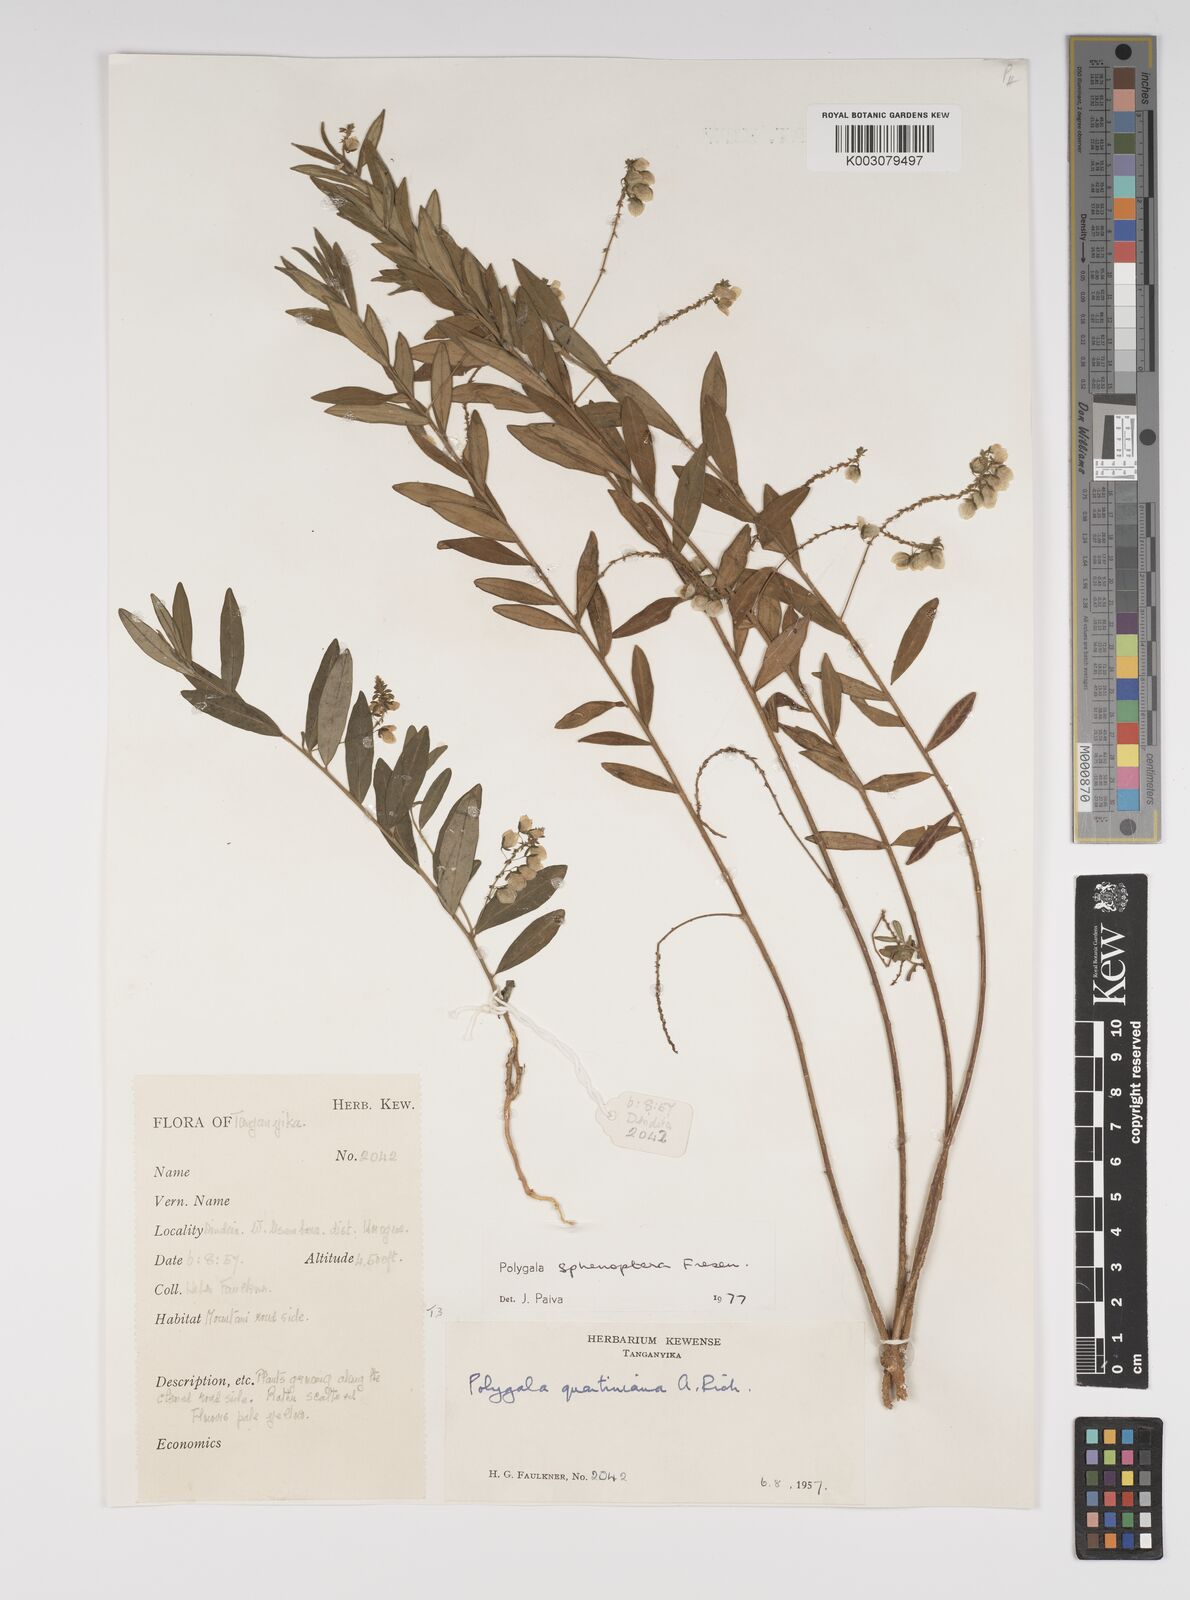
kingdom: Plantae
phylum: Tracheophyta
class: Magnoliopsida
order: Fabales
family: Polygalaceae
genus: Polygala
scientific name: Polygala sphenoptera
